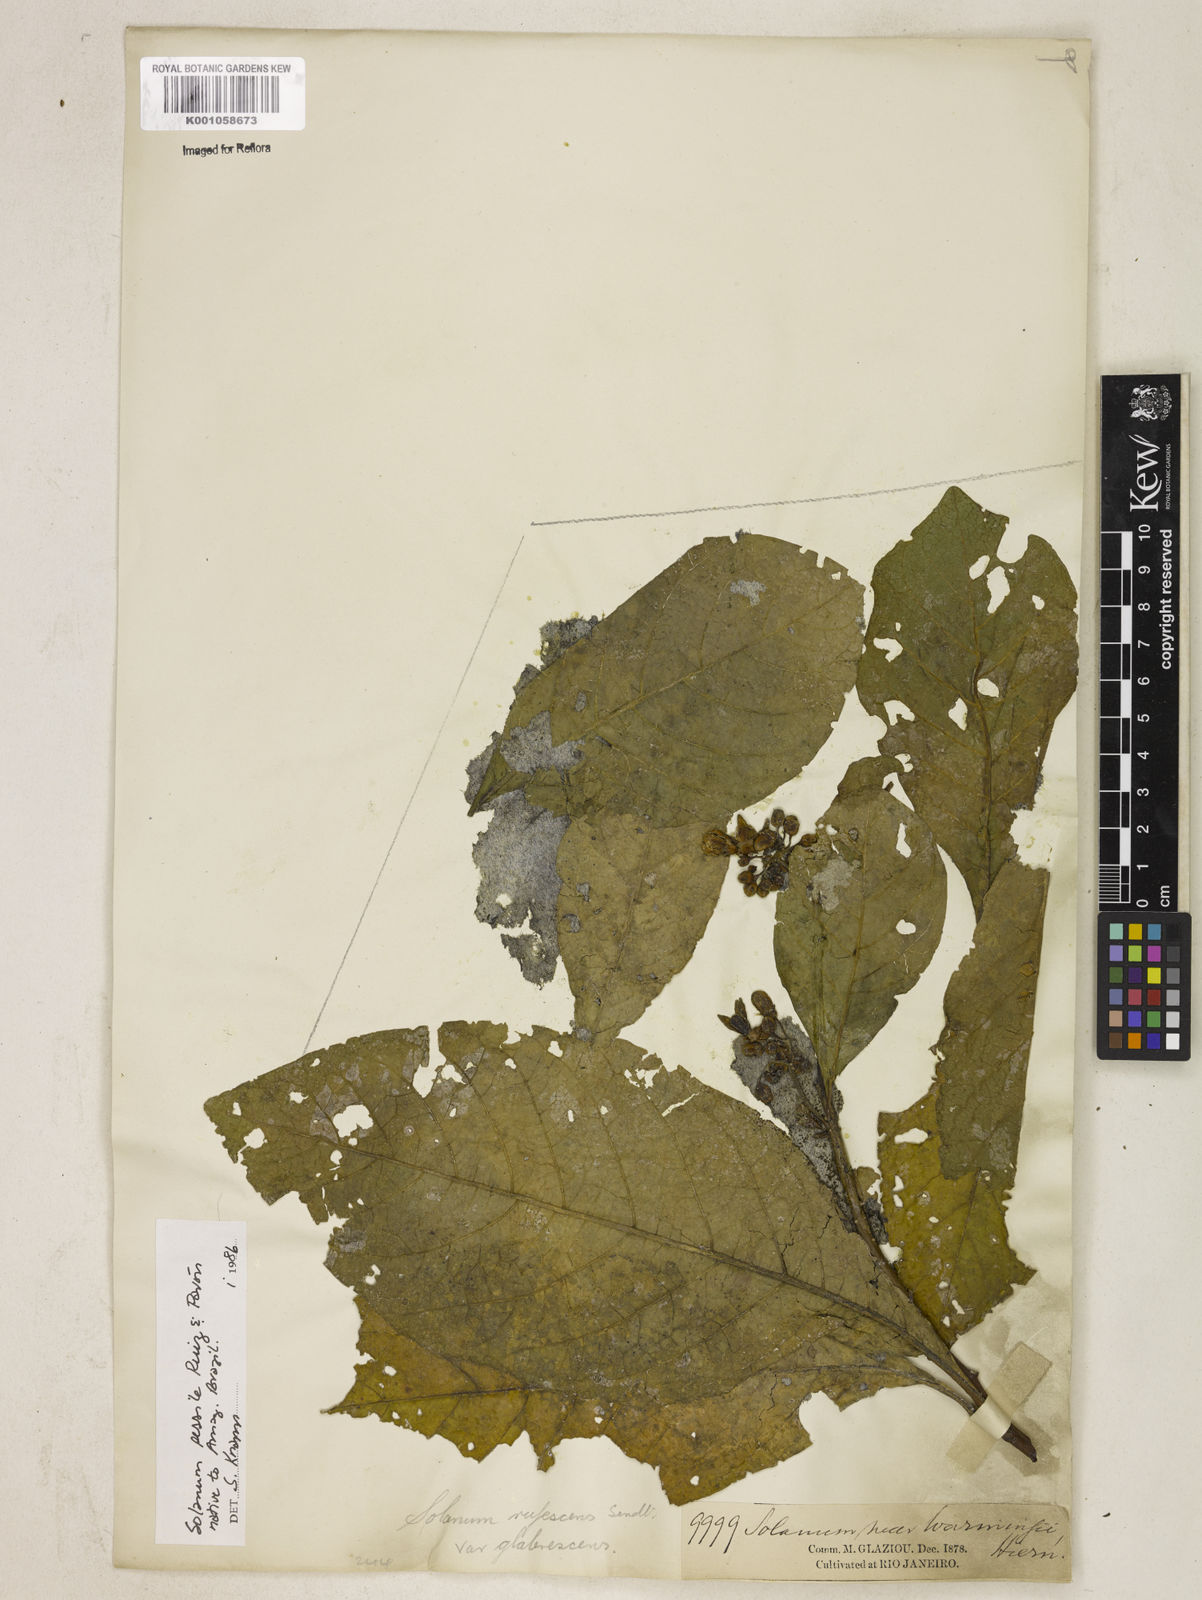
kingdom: Plantae
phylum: Tracheophyta
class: Magnoliopsida
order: Solanales
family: Solanaceae
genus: Solanum
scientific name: Solanum sessile
